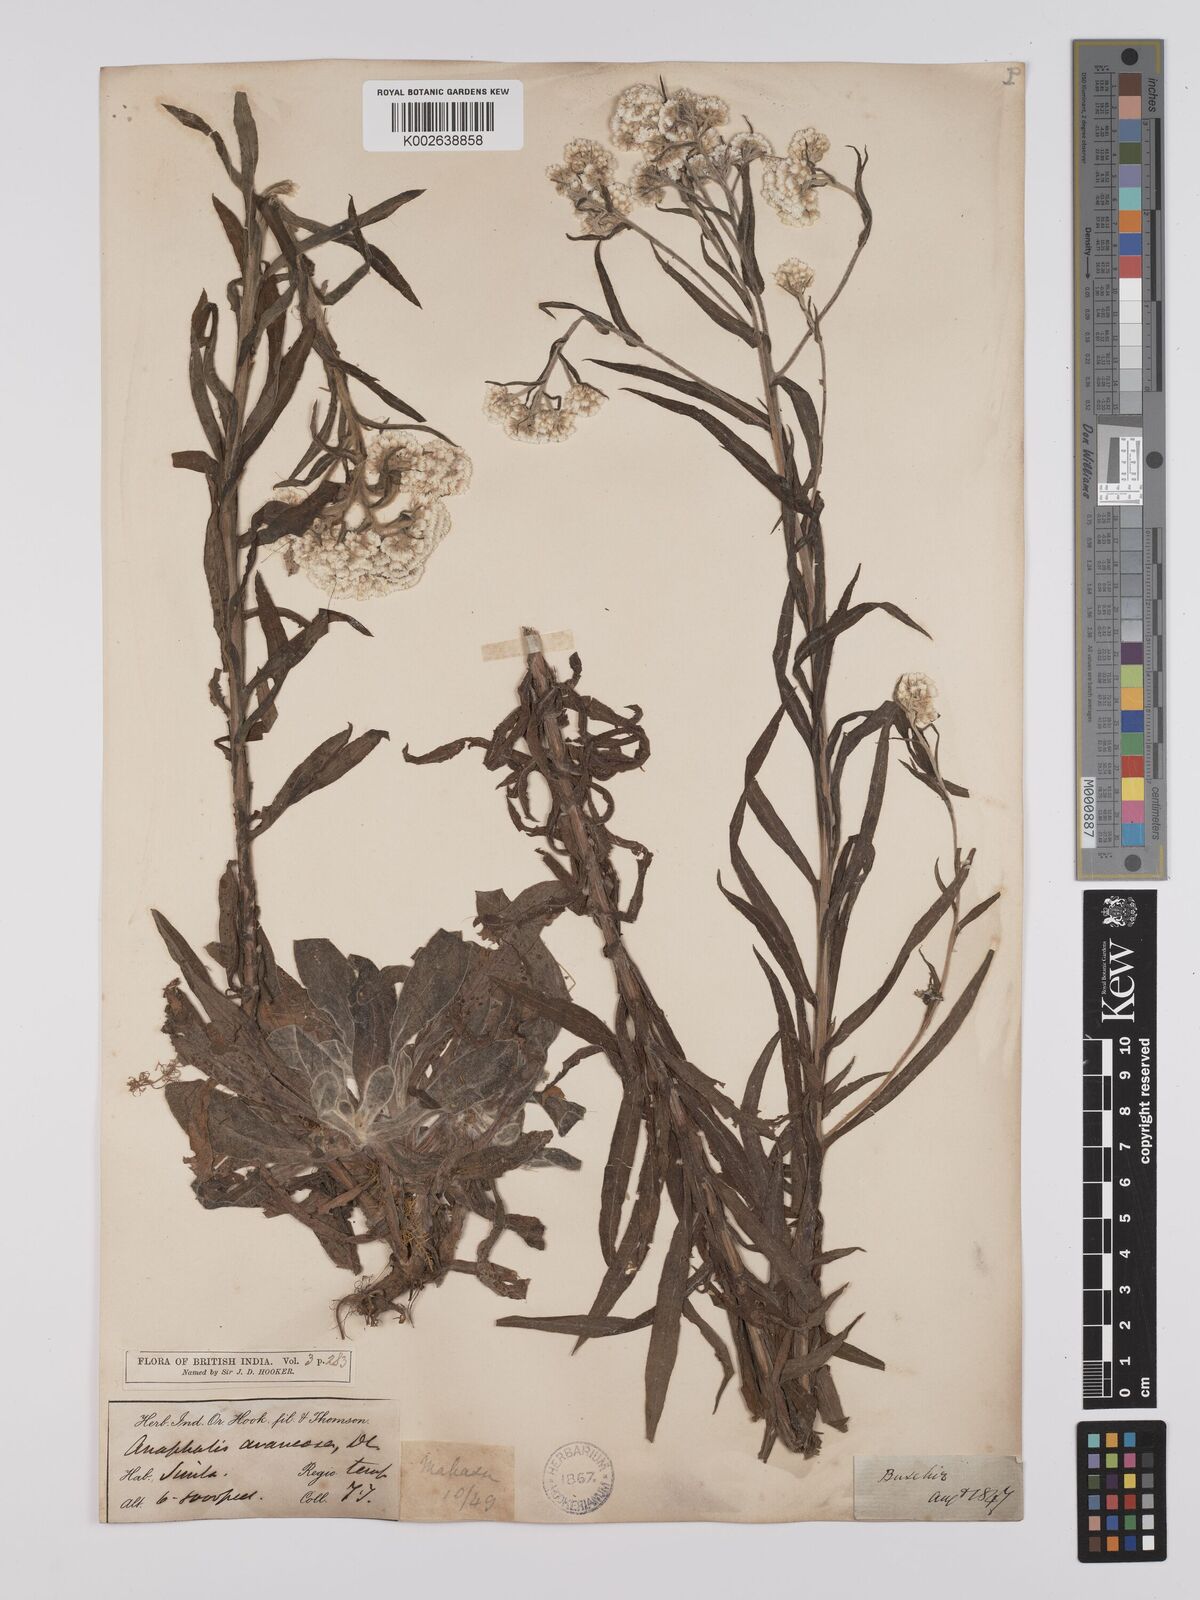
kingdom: Plantae
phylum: Tracheophyta
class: Magnoliopsida
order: Asterales
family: Asteraceae
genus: Anaphalis
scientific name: Anaphalis busua
